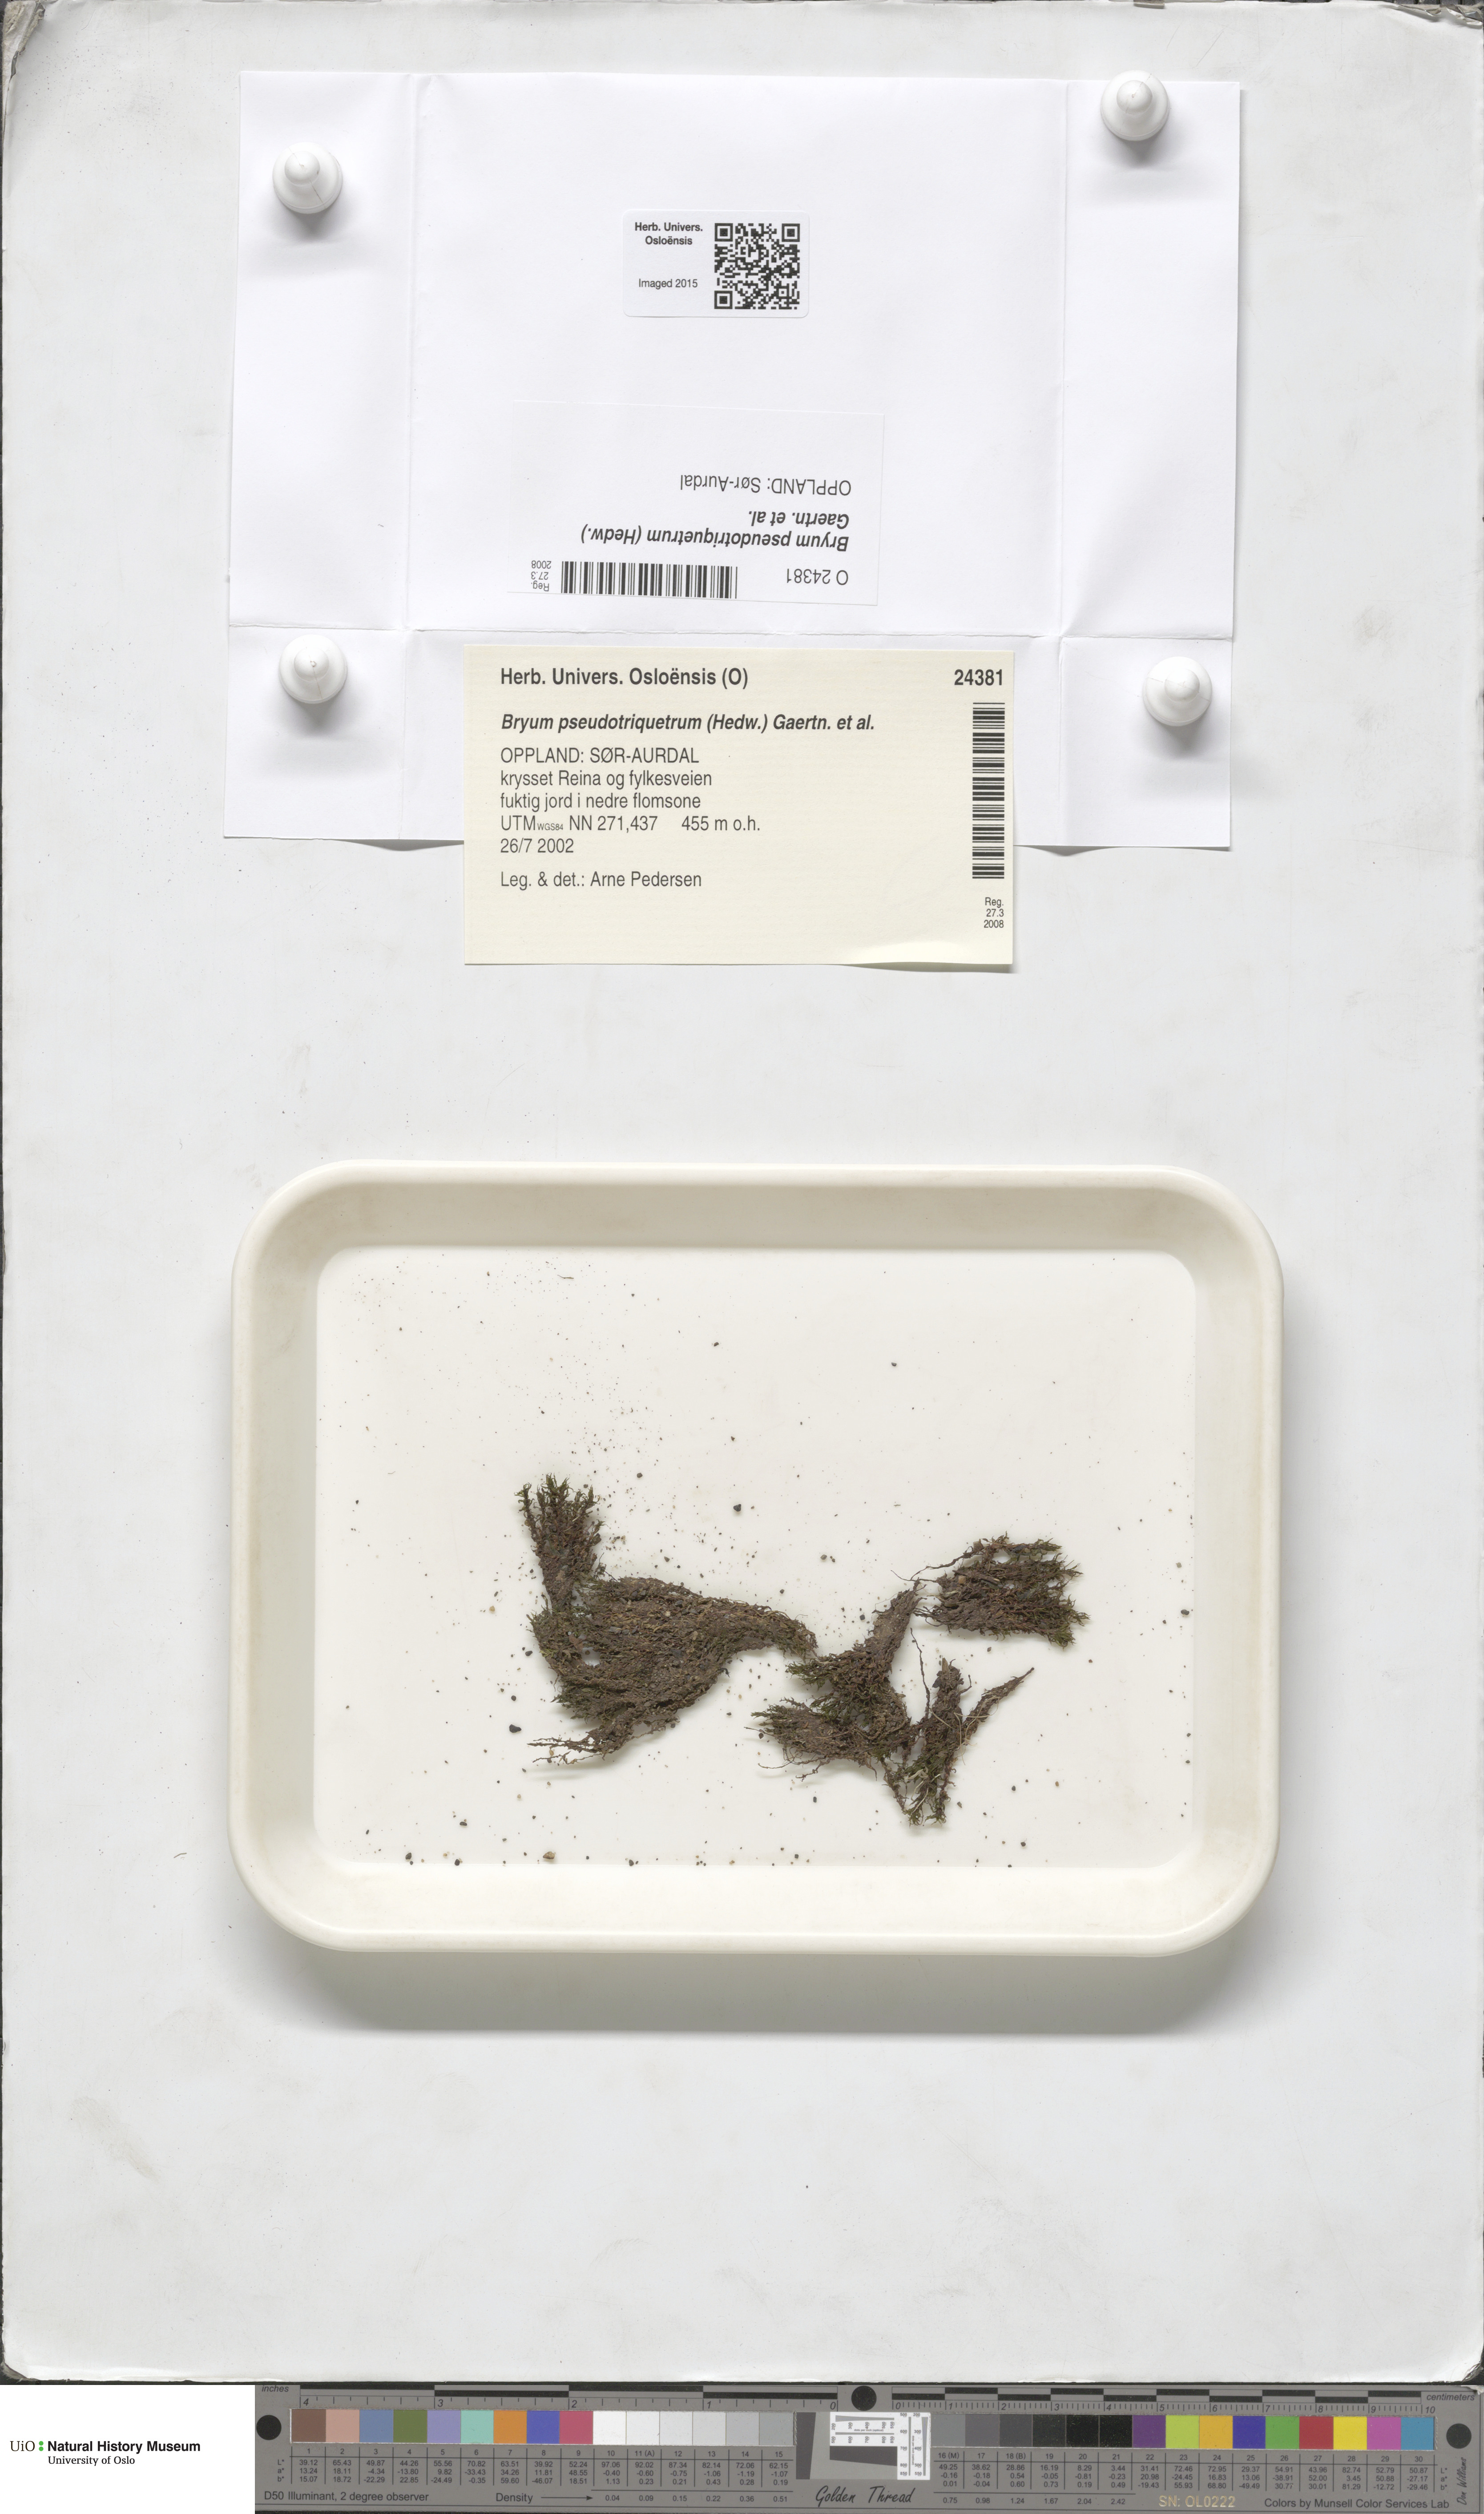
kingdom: Plantae
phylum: Bryophyta
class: Bryopsida
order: Bryales
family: Bryaceae
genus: Ptychostomum
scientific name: Ptychostomum pseudotriquetrum
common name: Long-leaved thread moss
